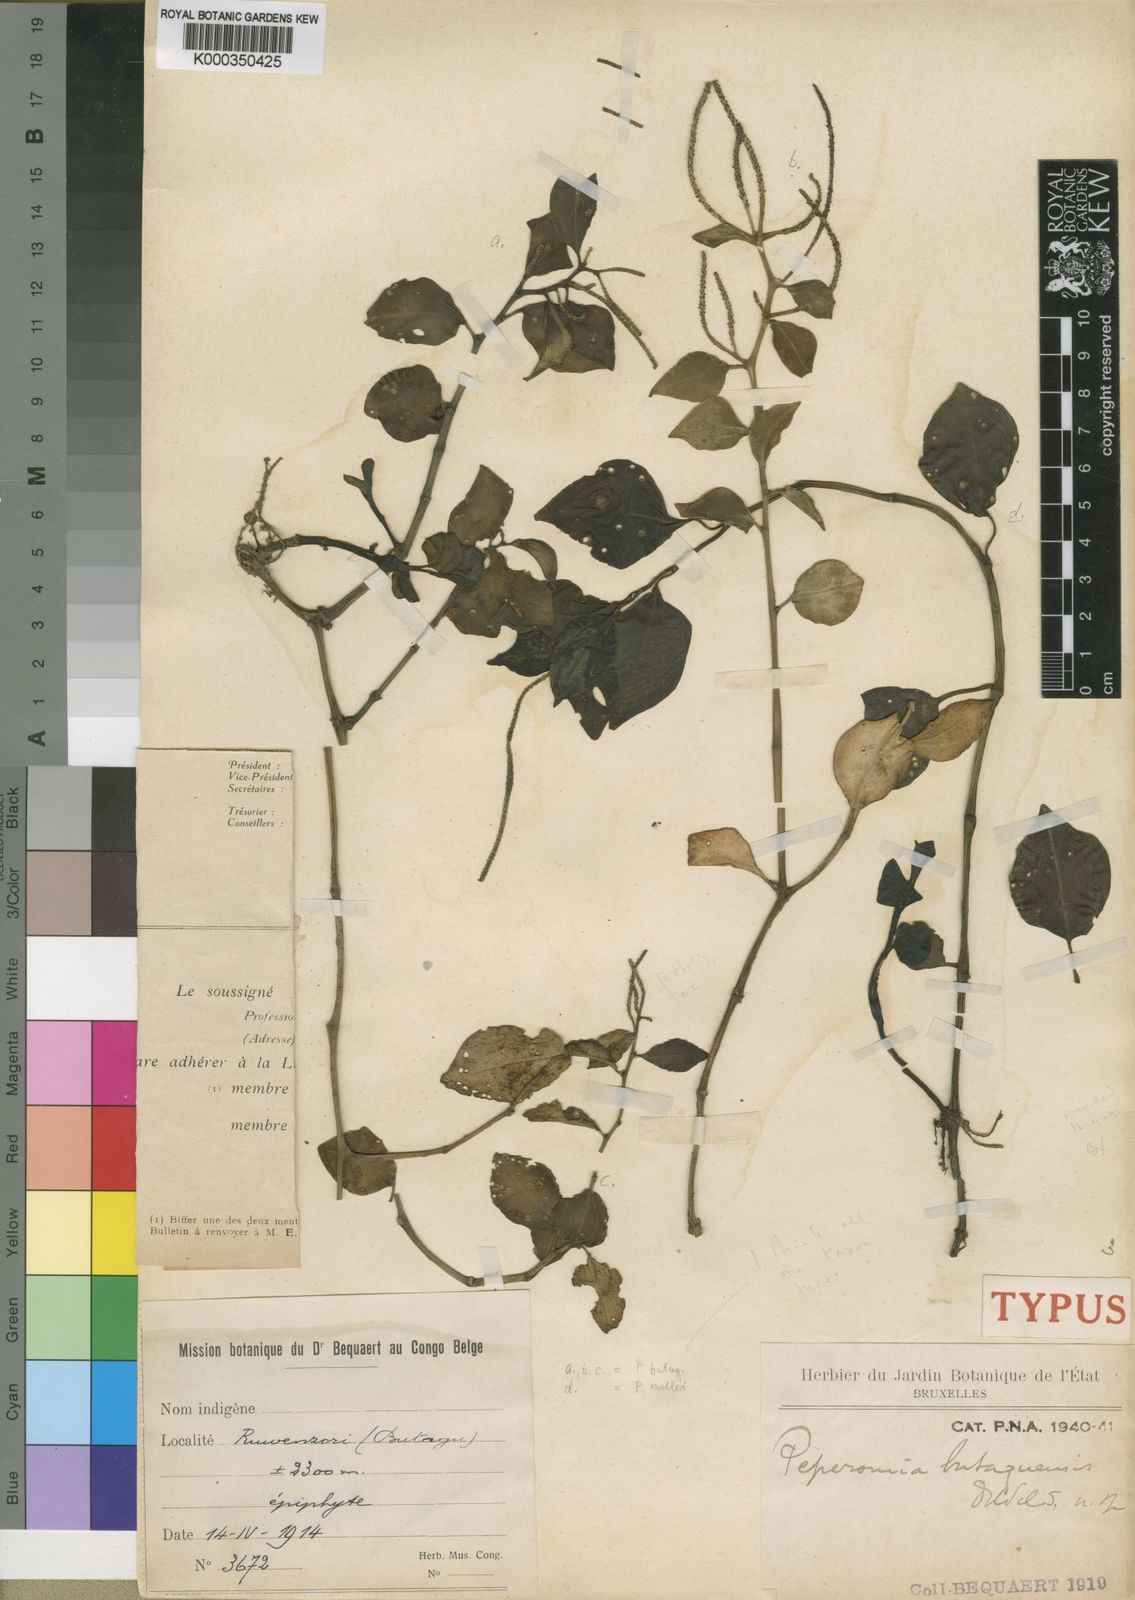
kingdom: Plantae
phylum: Tracheophyta
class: Magnoliopsida
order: Piperales
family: Piperaceae
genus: Peperomia
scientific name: Peperomia fernandopoiana
